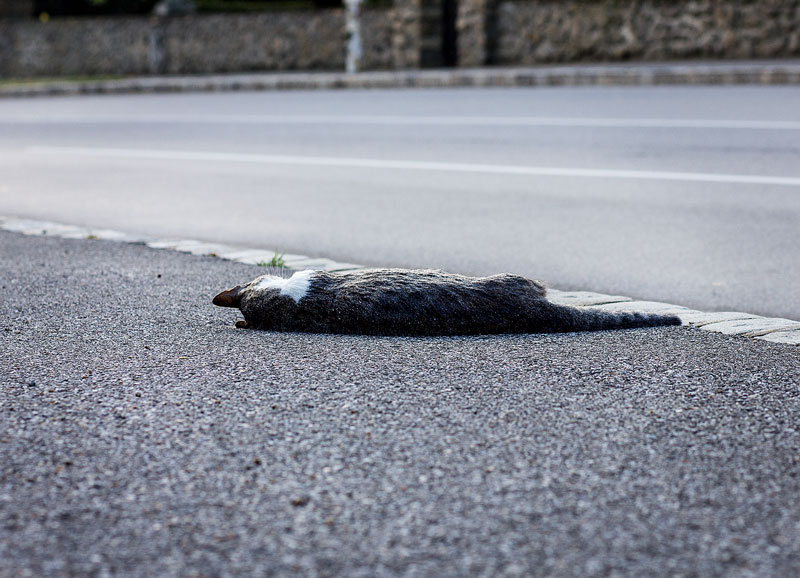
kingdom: Animalia
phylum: Chordata
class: Mammalia
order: Carnivora
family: Felidae
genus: Felis
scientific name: Felis catus
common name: Domestic cat
